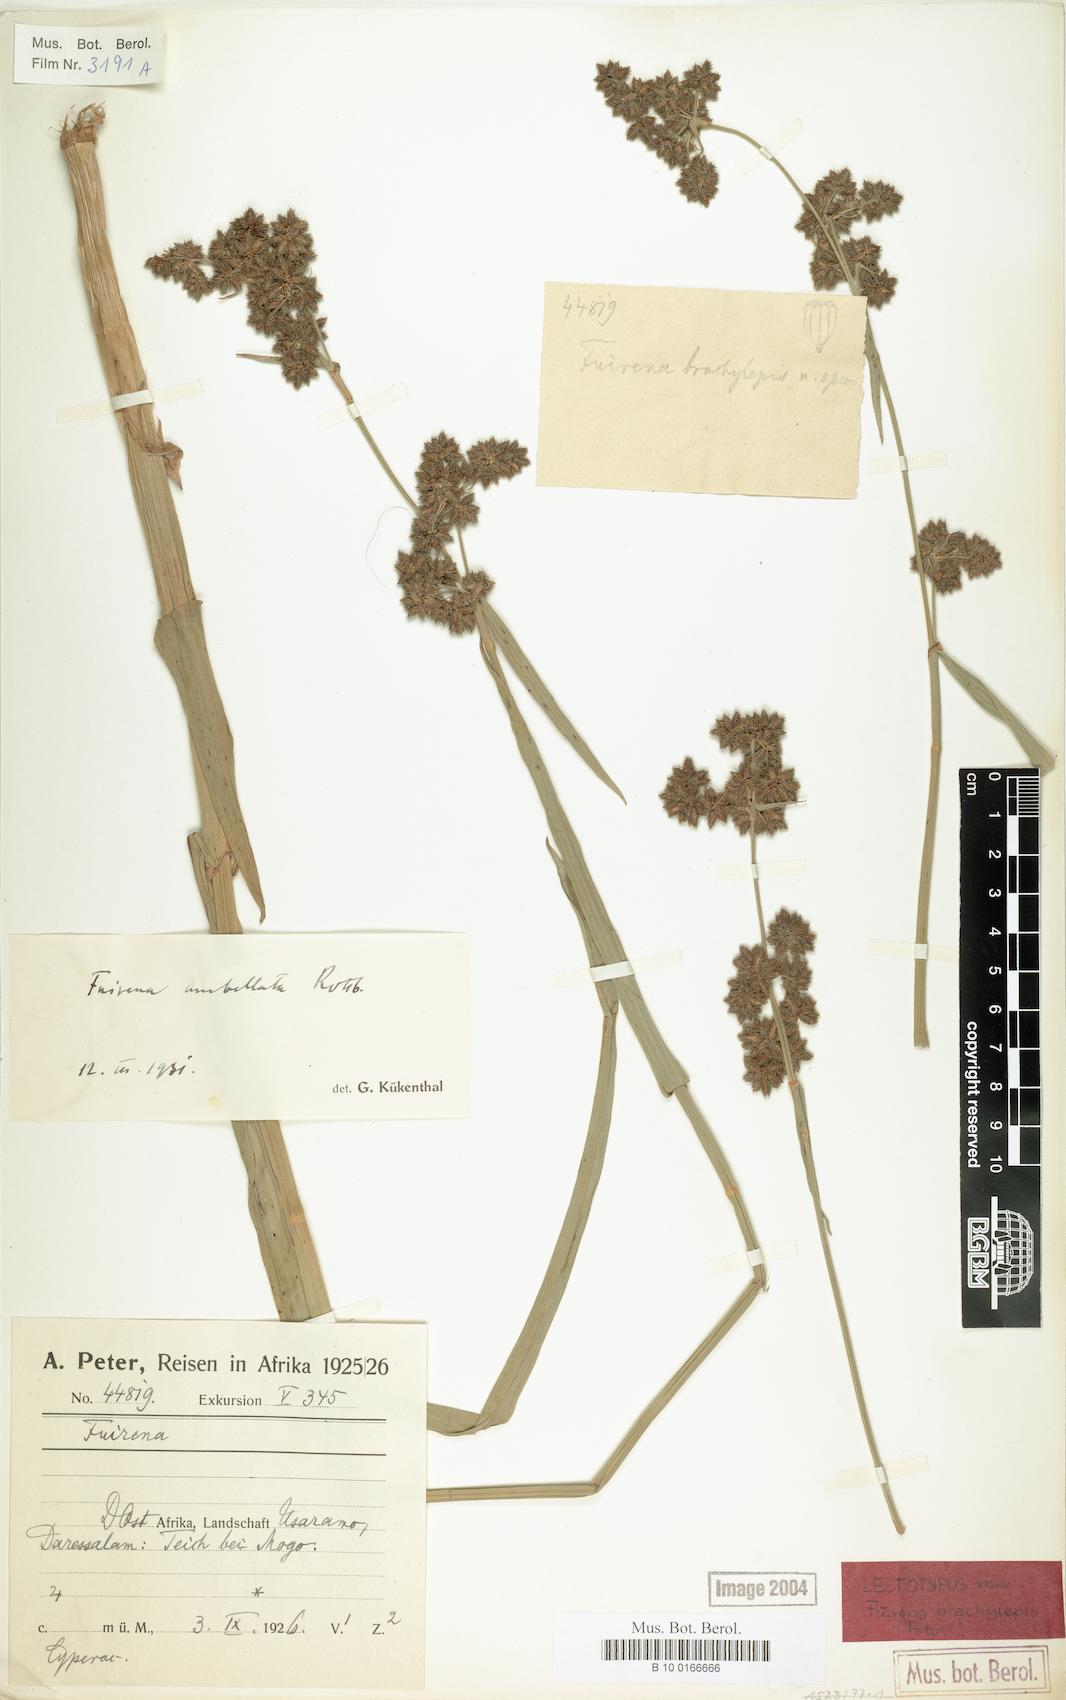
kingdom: Plantae
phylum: Tracheophyta
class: Liliopsida
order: Poales
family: Cyperaceae
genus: Fuirena
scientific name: Fuirena umbellata
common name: Yefen
